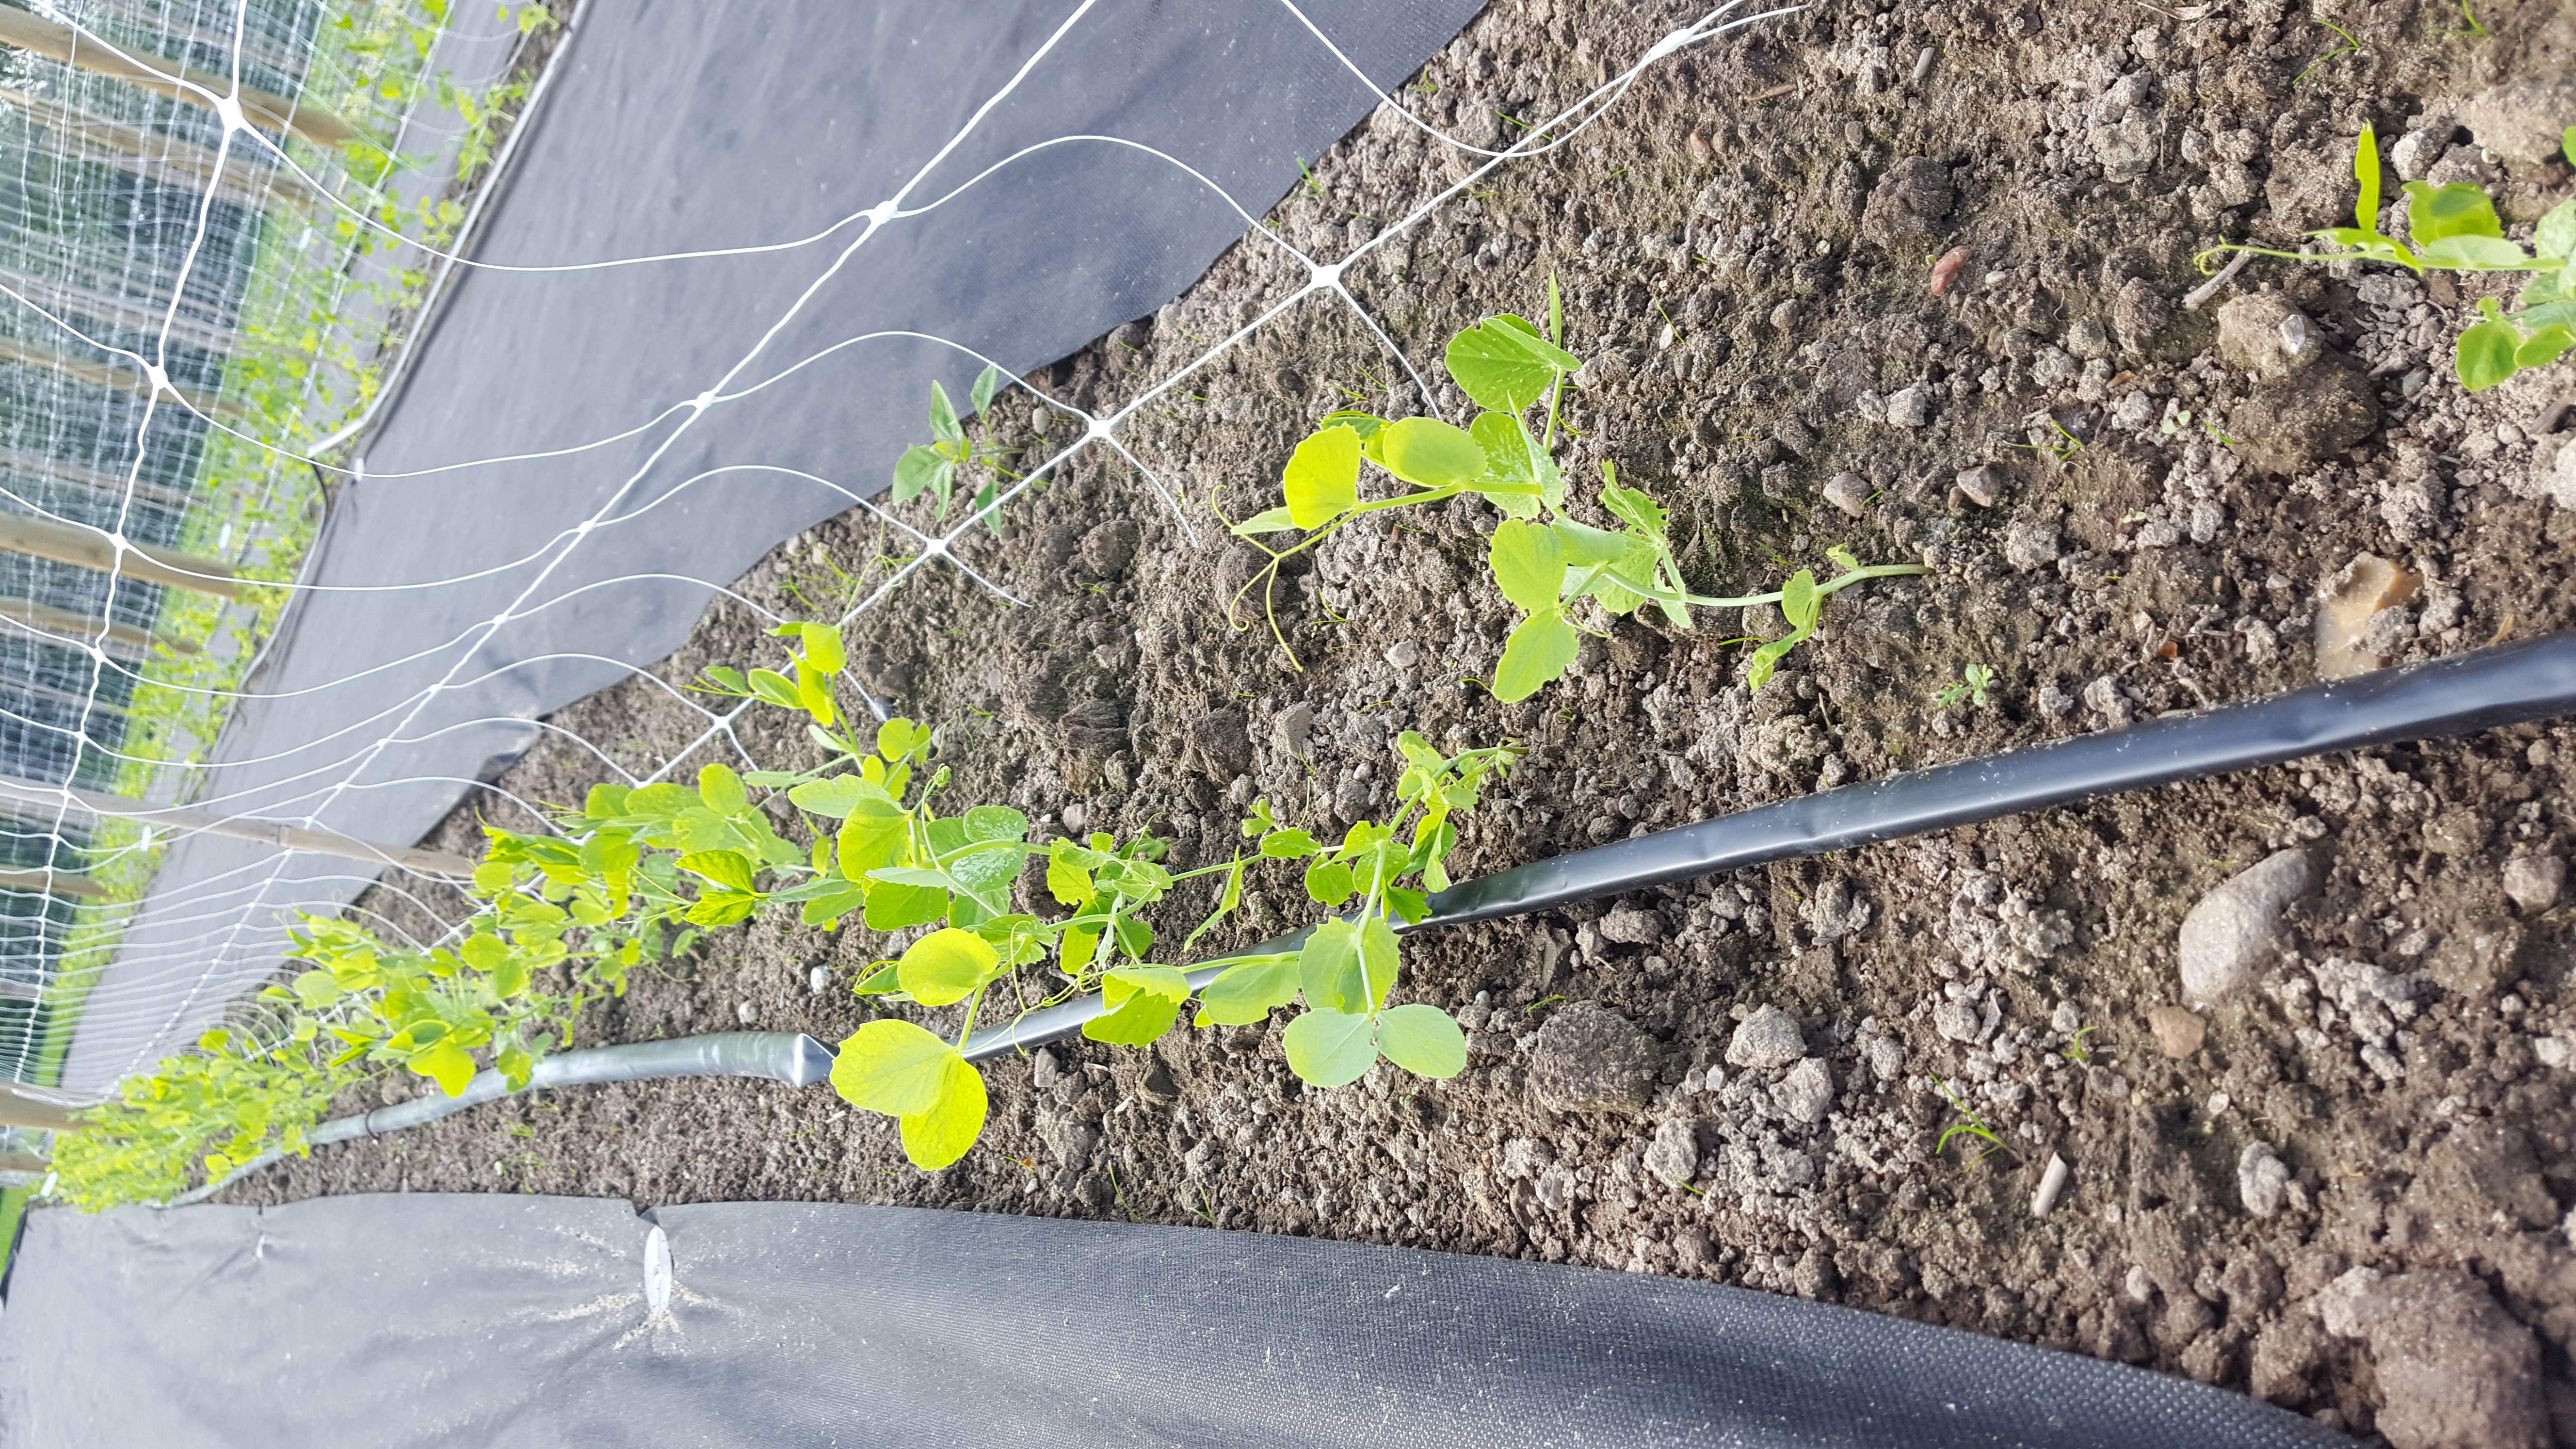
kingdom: Plantae
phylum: Tracheophyta
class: Magnoliopsida
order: Fabales
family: Fabaceae
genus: Lathyrus
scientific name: Lathyrus oleraceus
